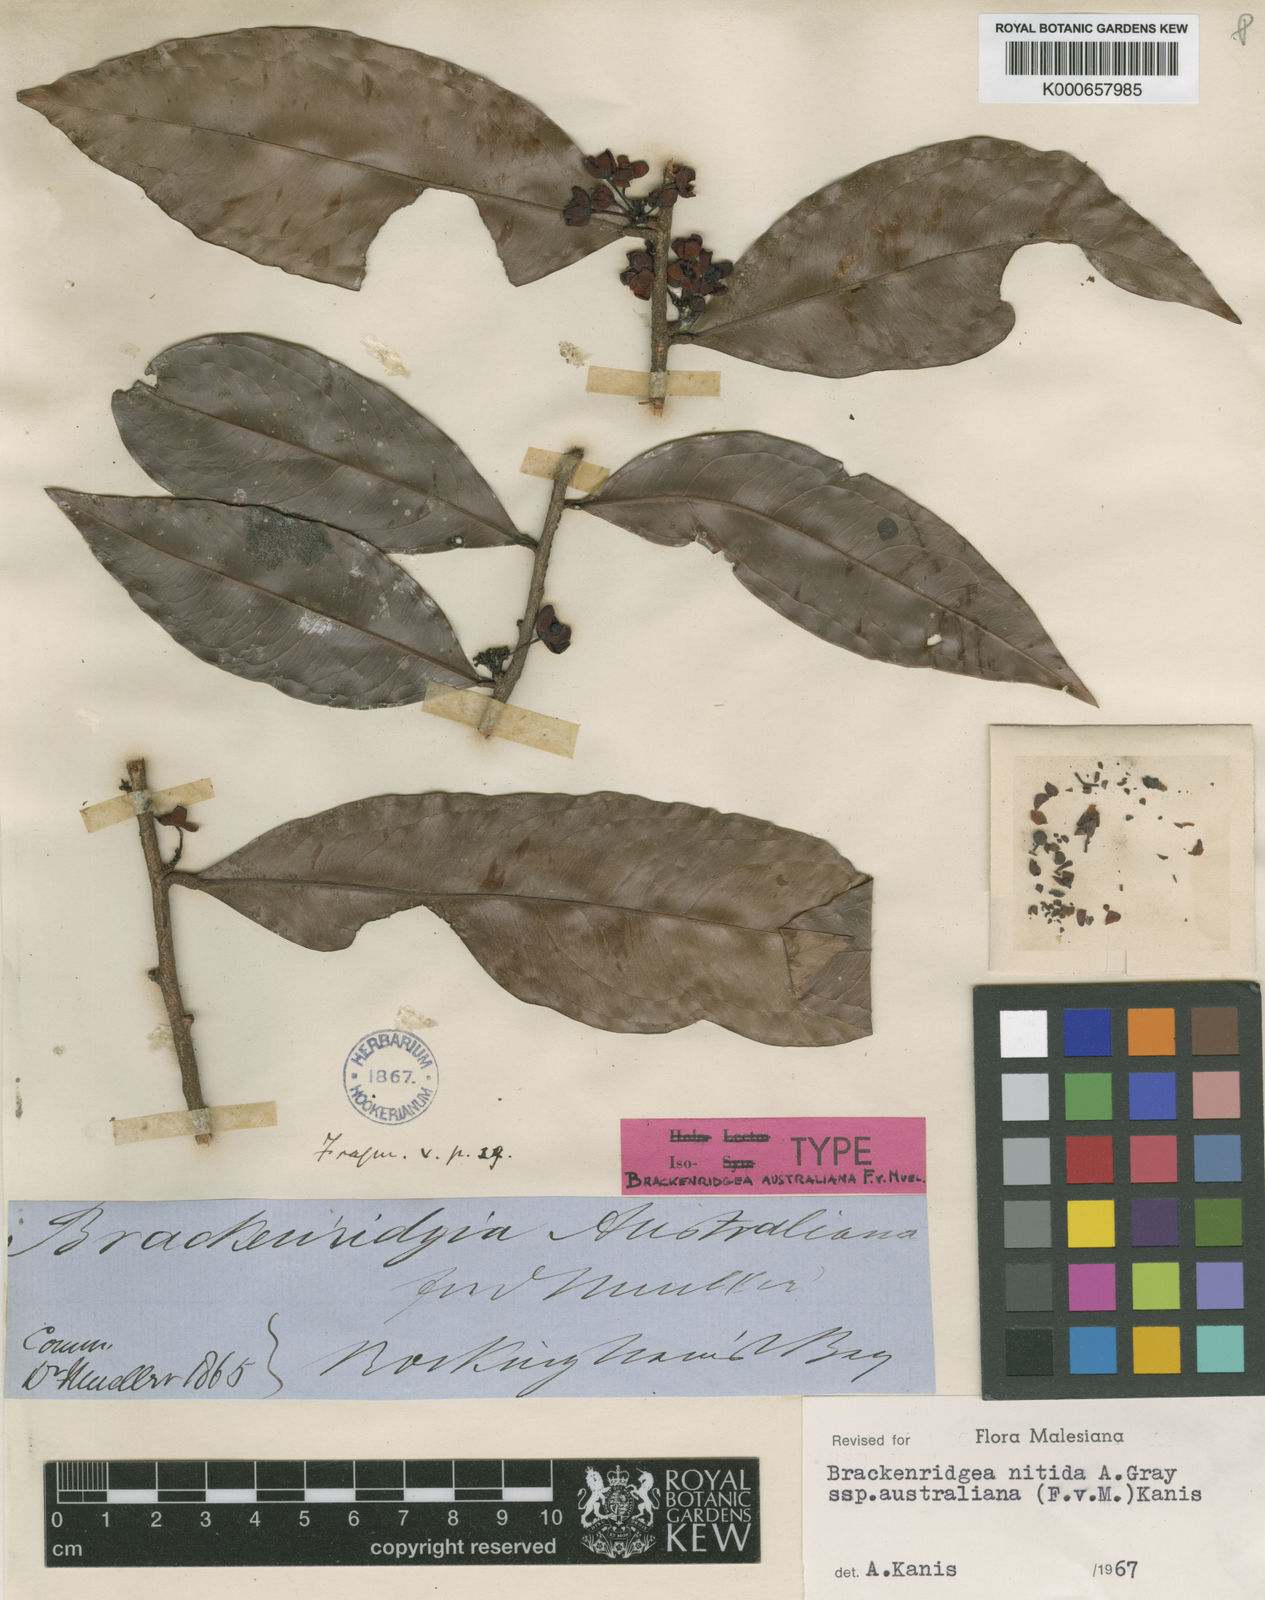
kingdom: Plantae
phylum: Tracheophyta
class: Magnoliopsida
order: Malpighiales
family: Ochnaceae
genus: Brackenridgea
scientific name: Brackenridgea nitida
